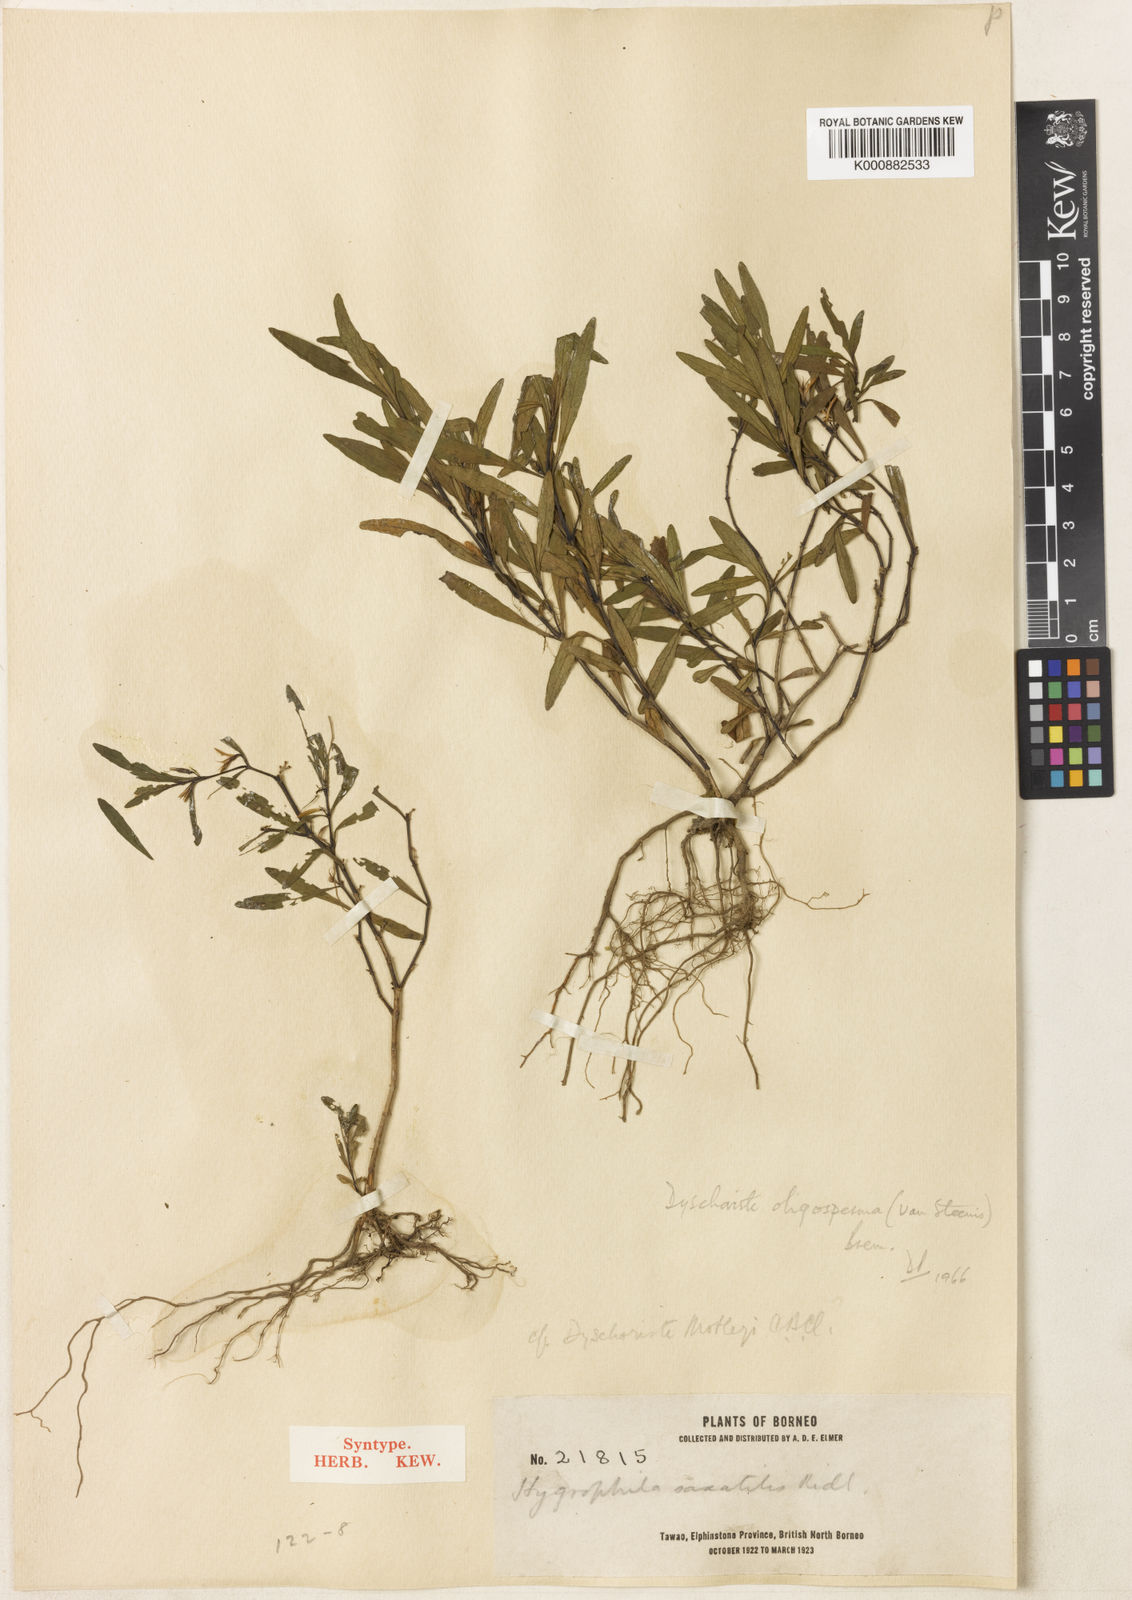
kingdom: Plantae
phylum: Tracheophyta
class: Magnoliopsida
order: Lamiales
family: Acanthaceae
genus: Dyschoriste
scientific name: Dyschoriste oligosperma
